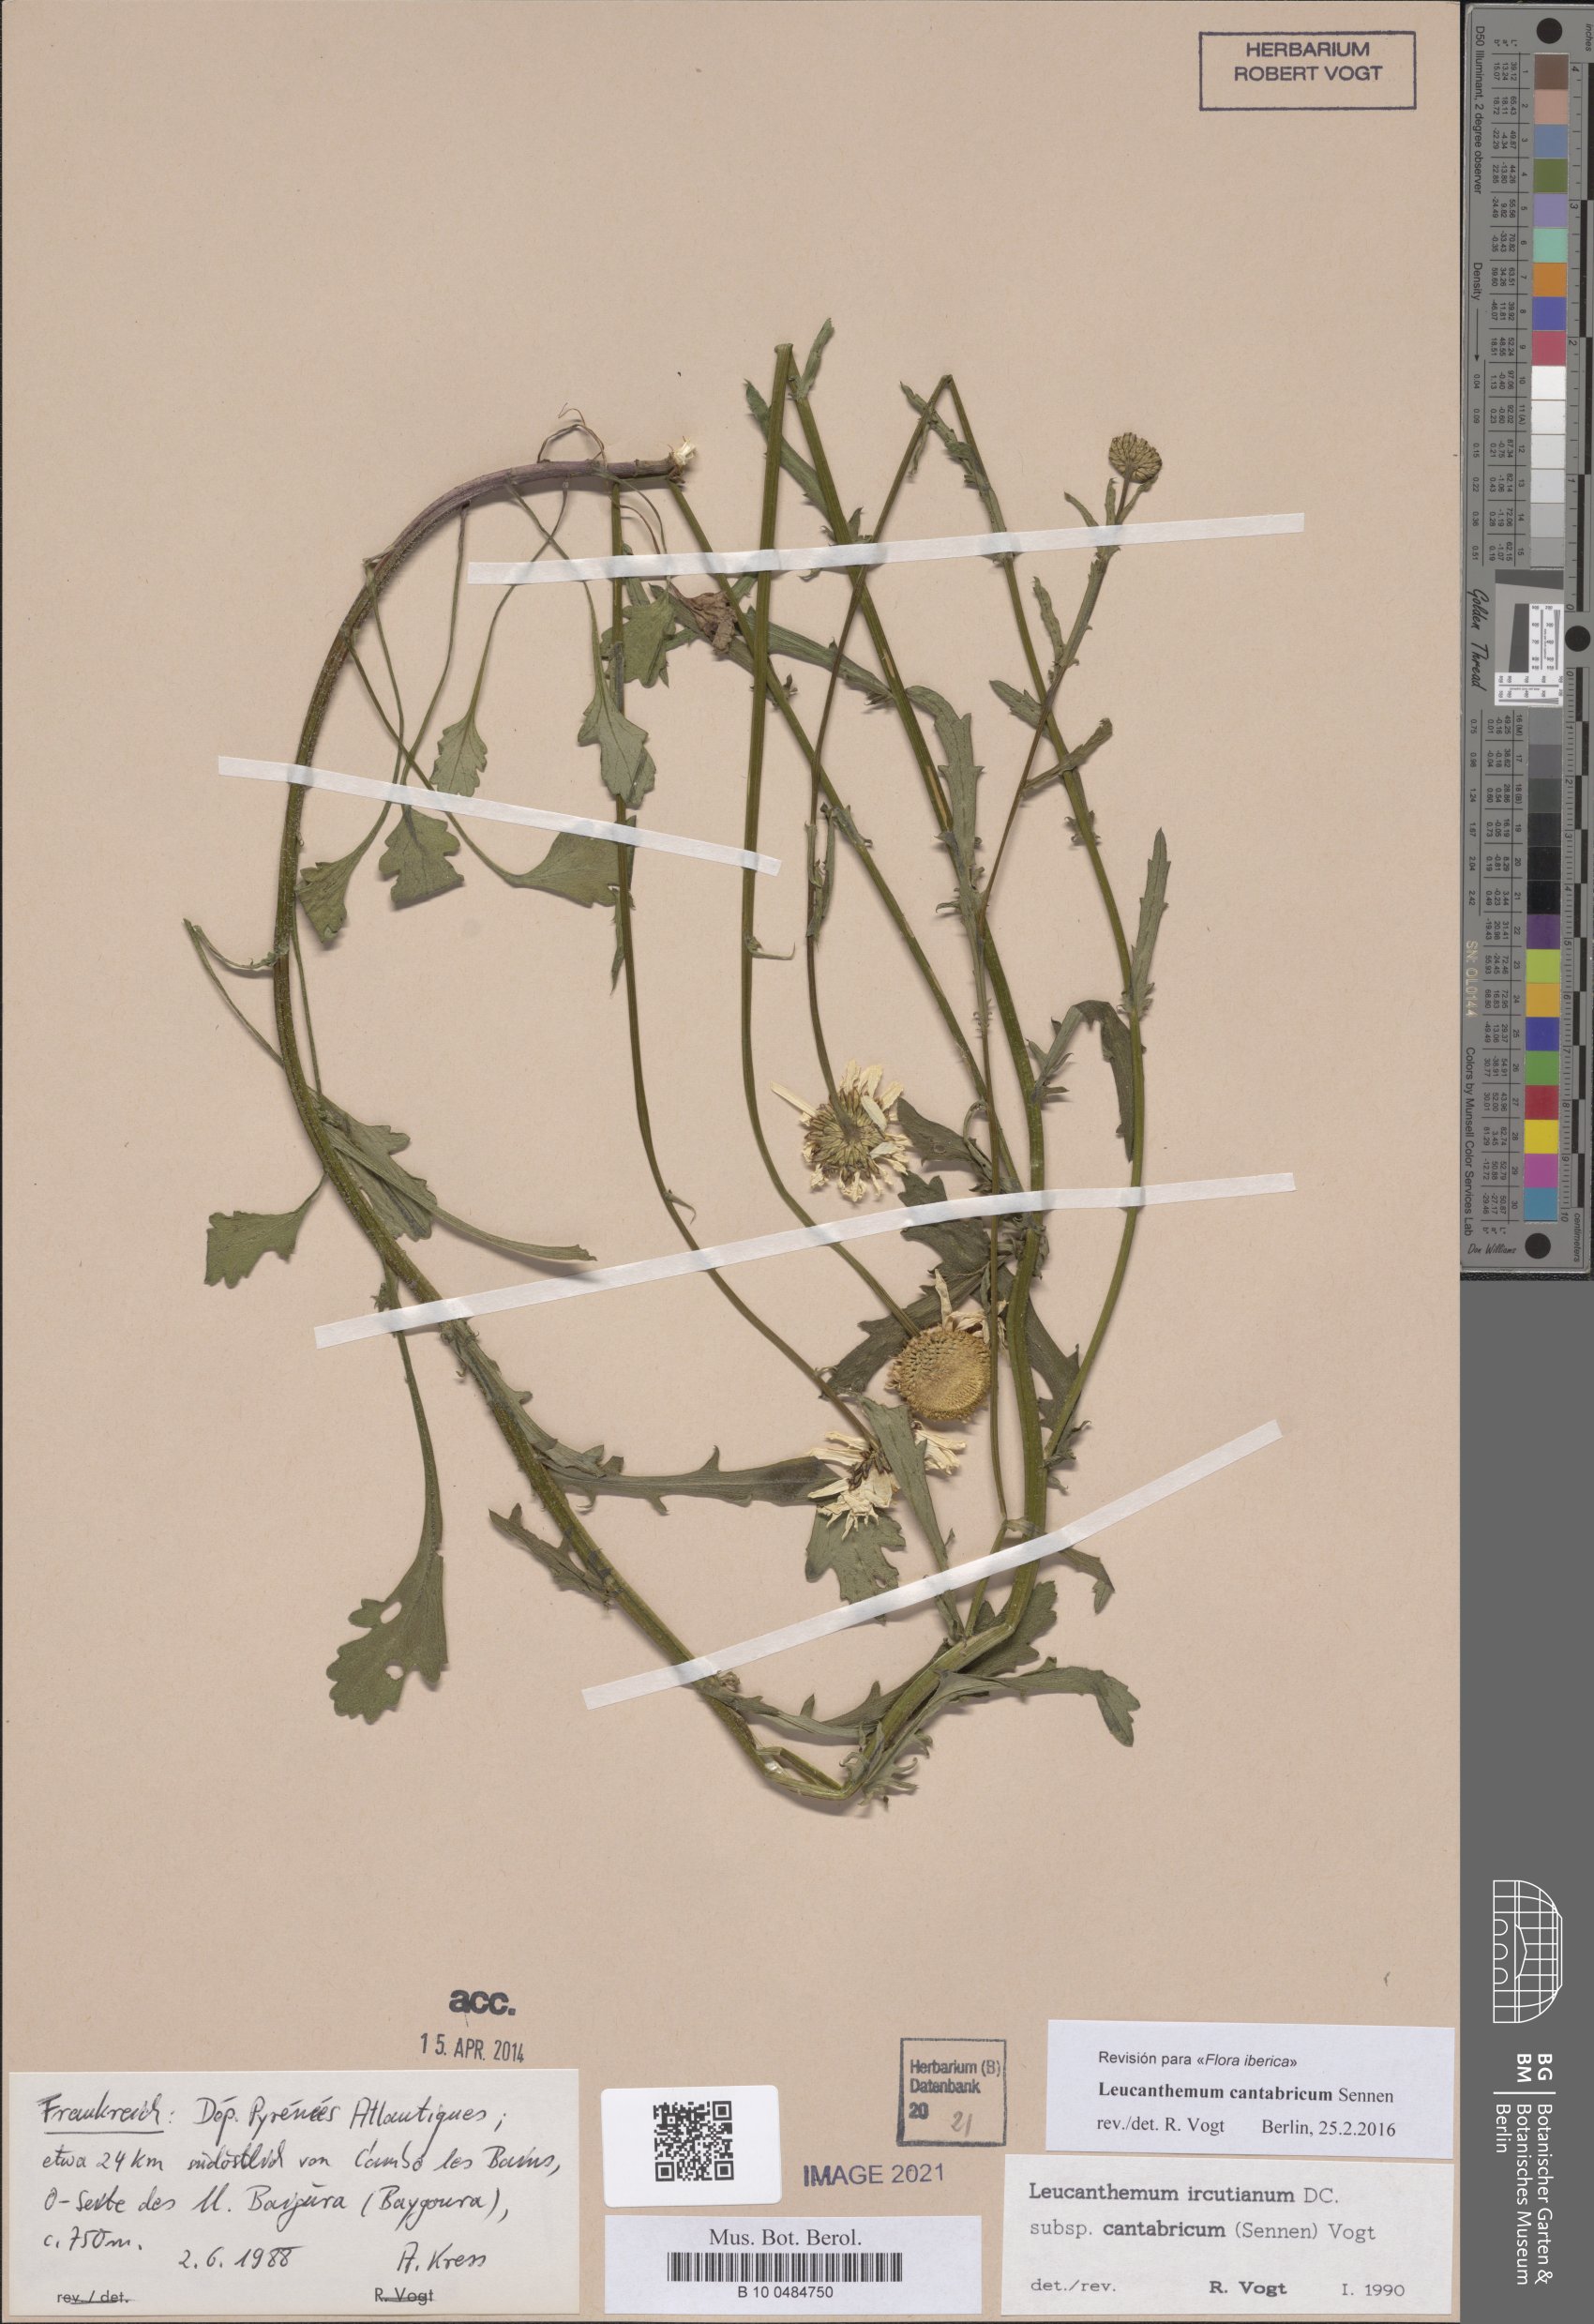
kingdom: Plantae
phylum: Tracheophyta
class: Magnoliopsida
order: Asterales
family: Asteraceae
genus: Leucanthemum
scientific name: Leucanthemum cantabricum
